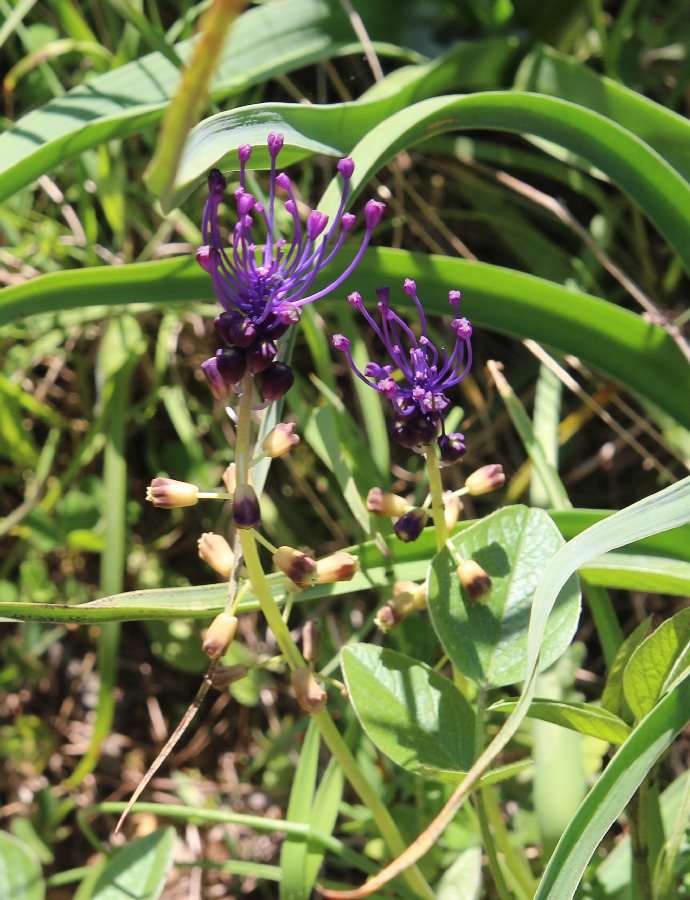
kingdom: Plantae
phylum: Tracheophyta
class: Liliopsida
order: Asparagales
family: Asparagaceae
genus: Muscari
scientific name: Muscari comosum
